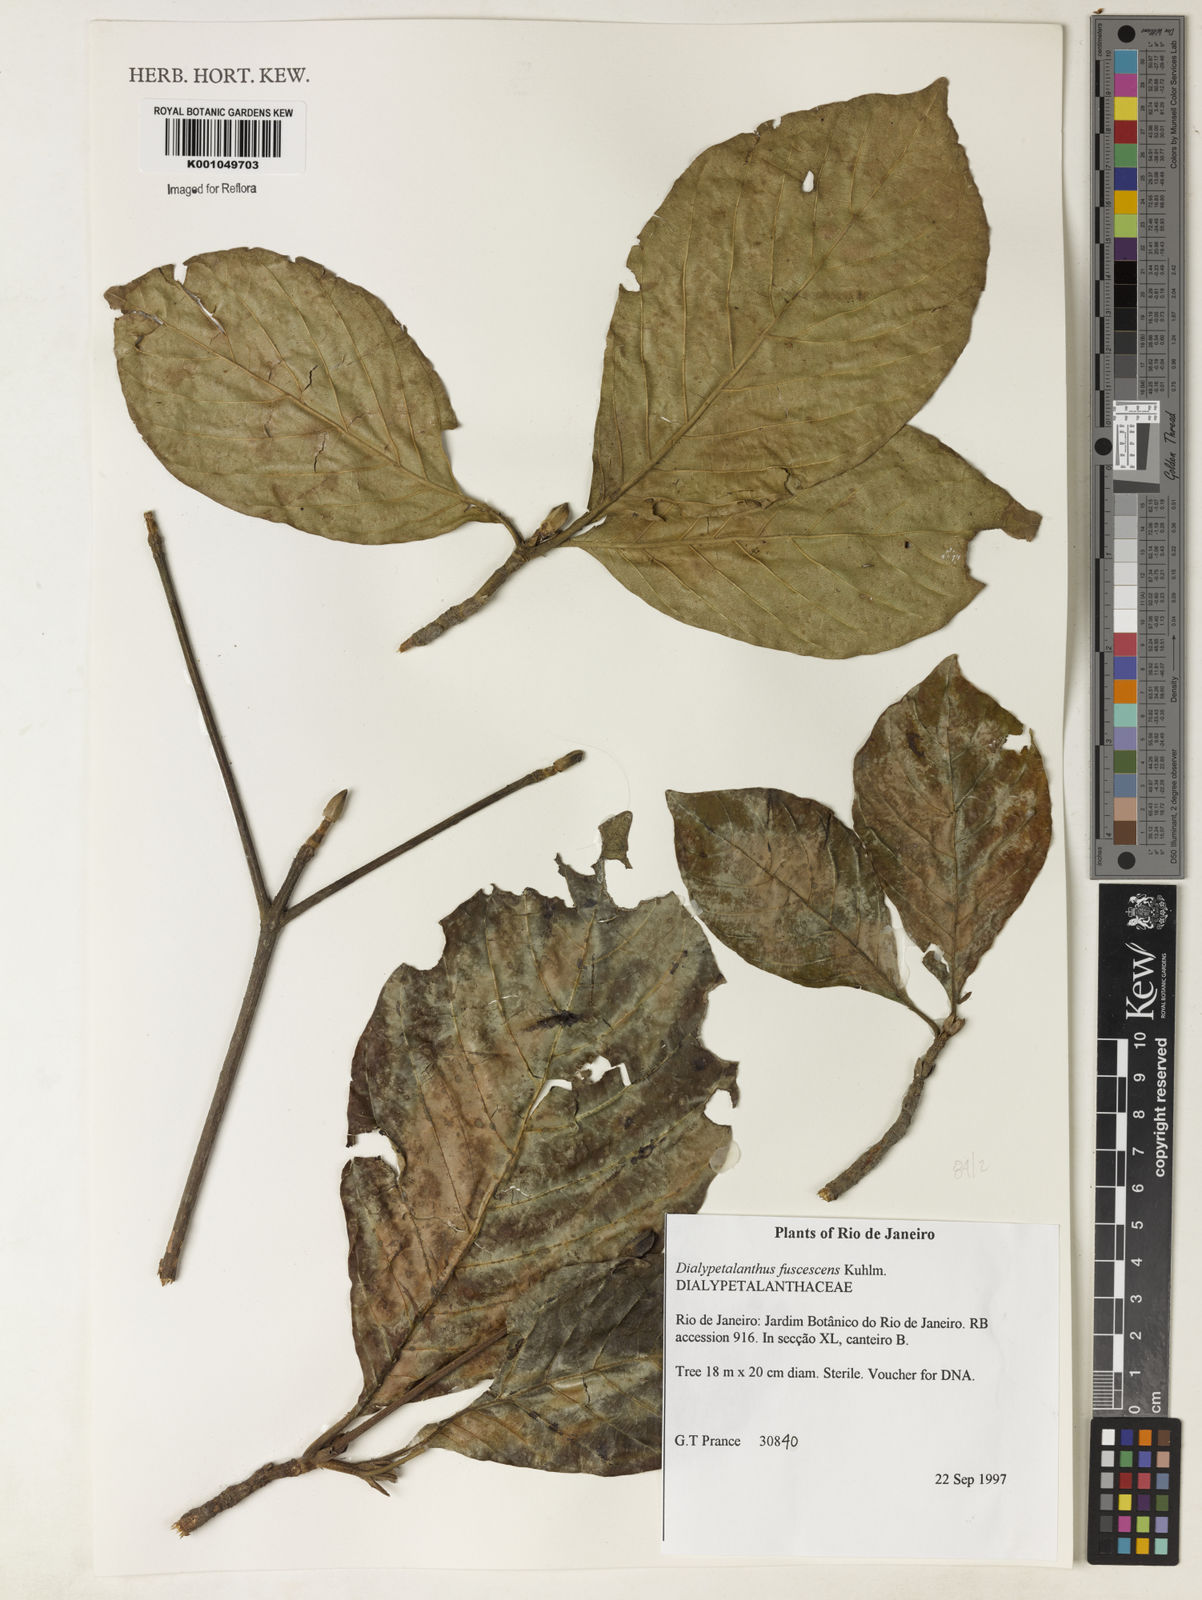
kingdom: Plantae
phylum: Tracheophyta
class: Magnoliopsida
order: Gentianales
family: Rubiaceae
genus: Dialypetalanthus
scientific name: Dialypetalanthus fuscescens
